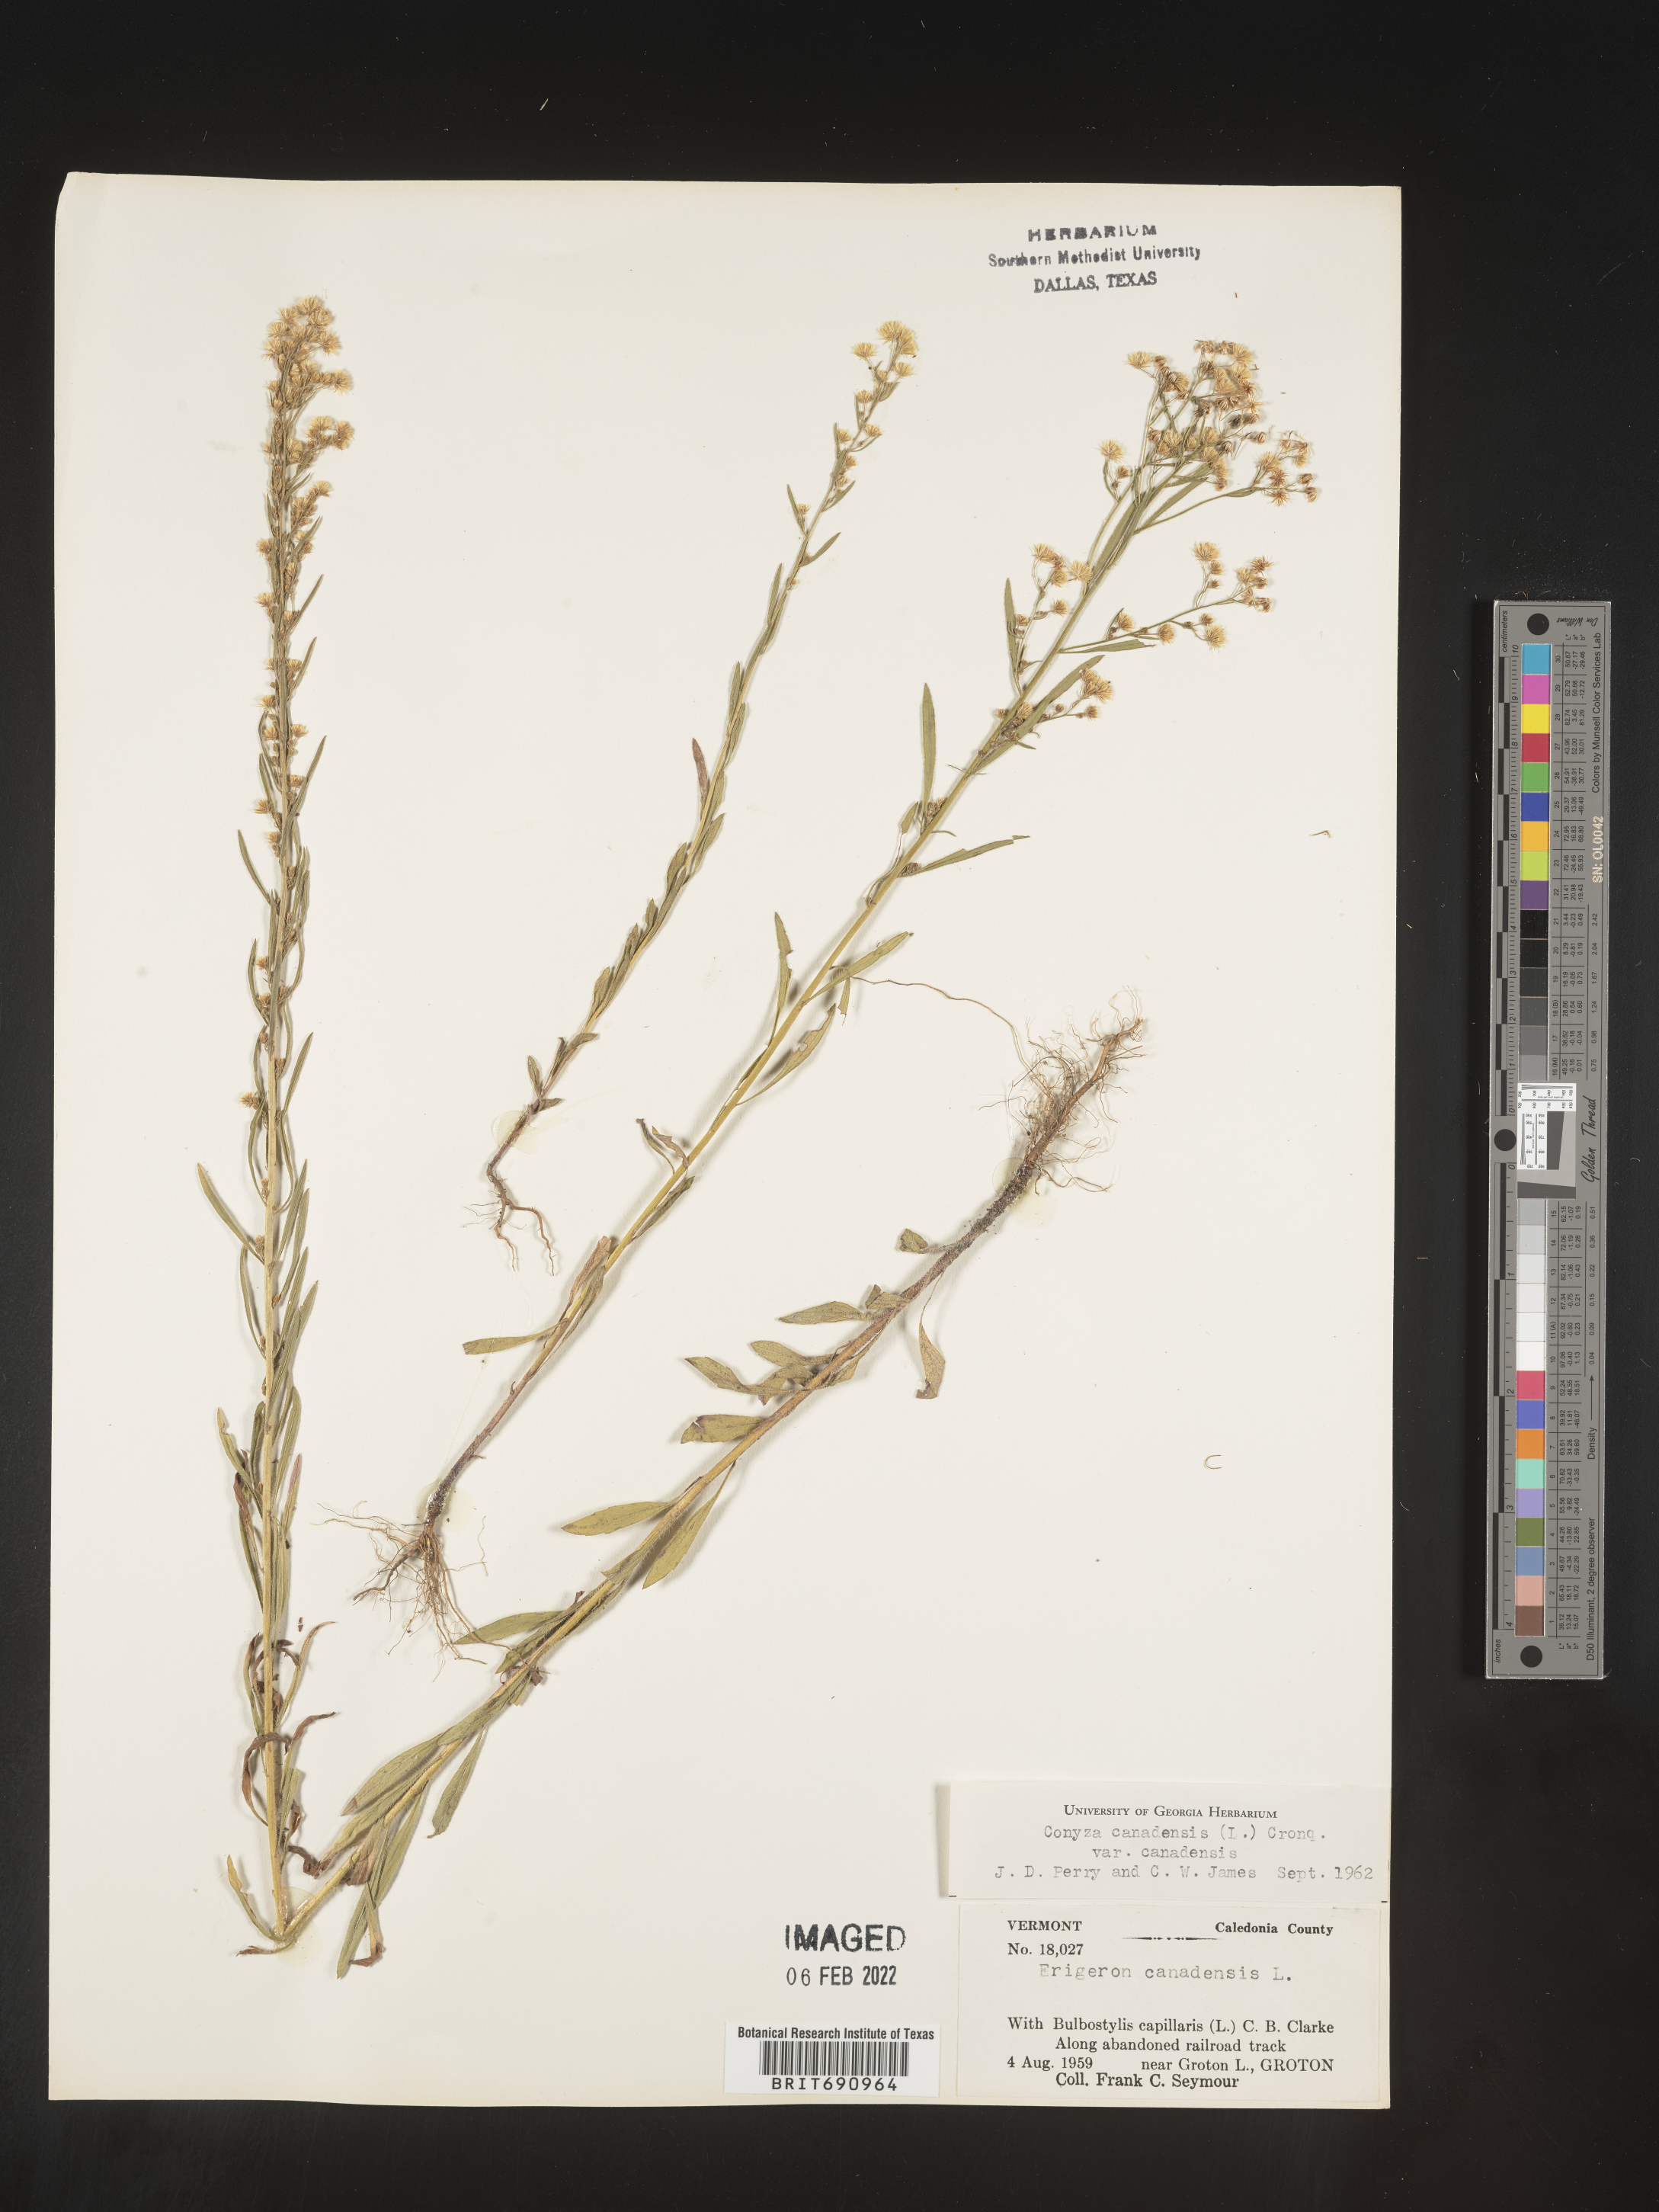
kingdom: Plantae
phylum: Tracheophyta
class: Magnoliopsida
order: Asterales
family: Asteraceae
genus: Erigeron
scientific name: Erigeron canadensis
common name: Canadian fleabane
